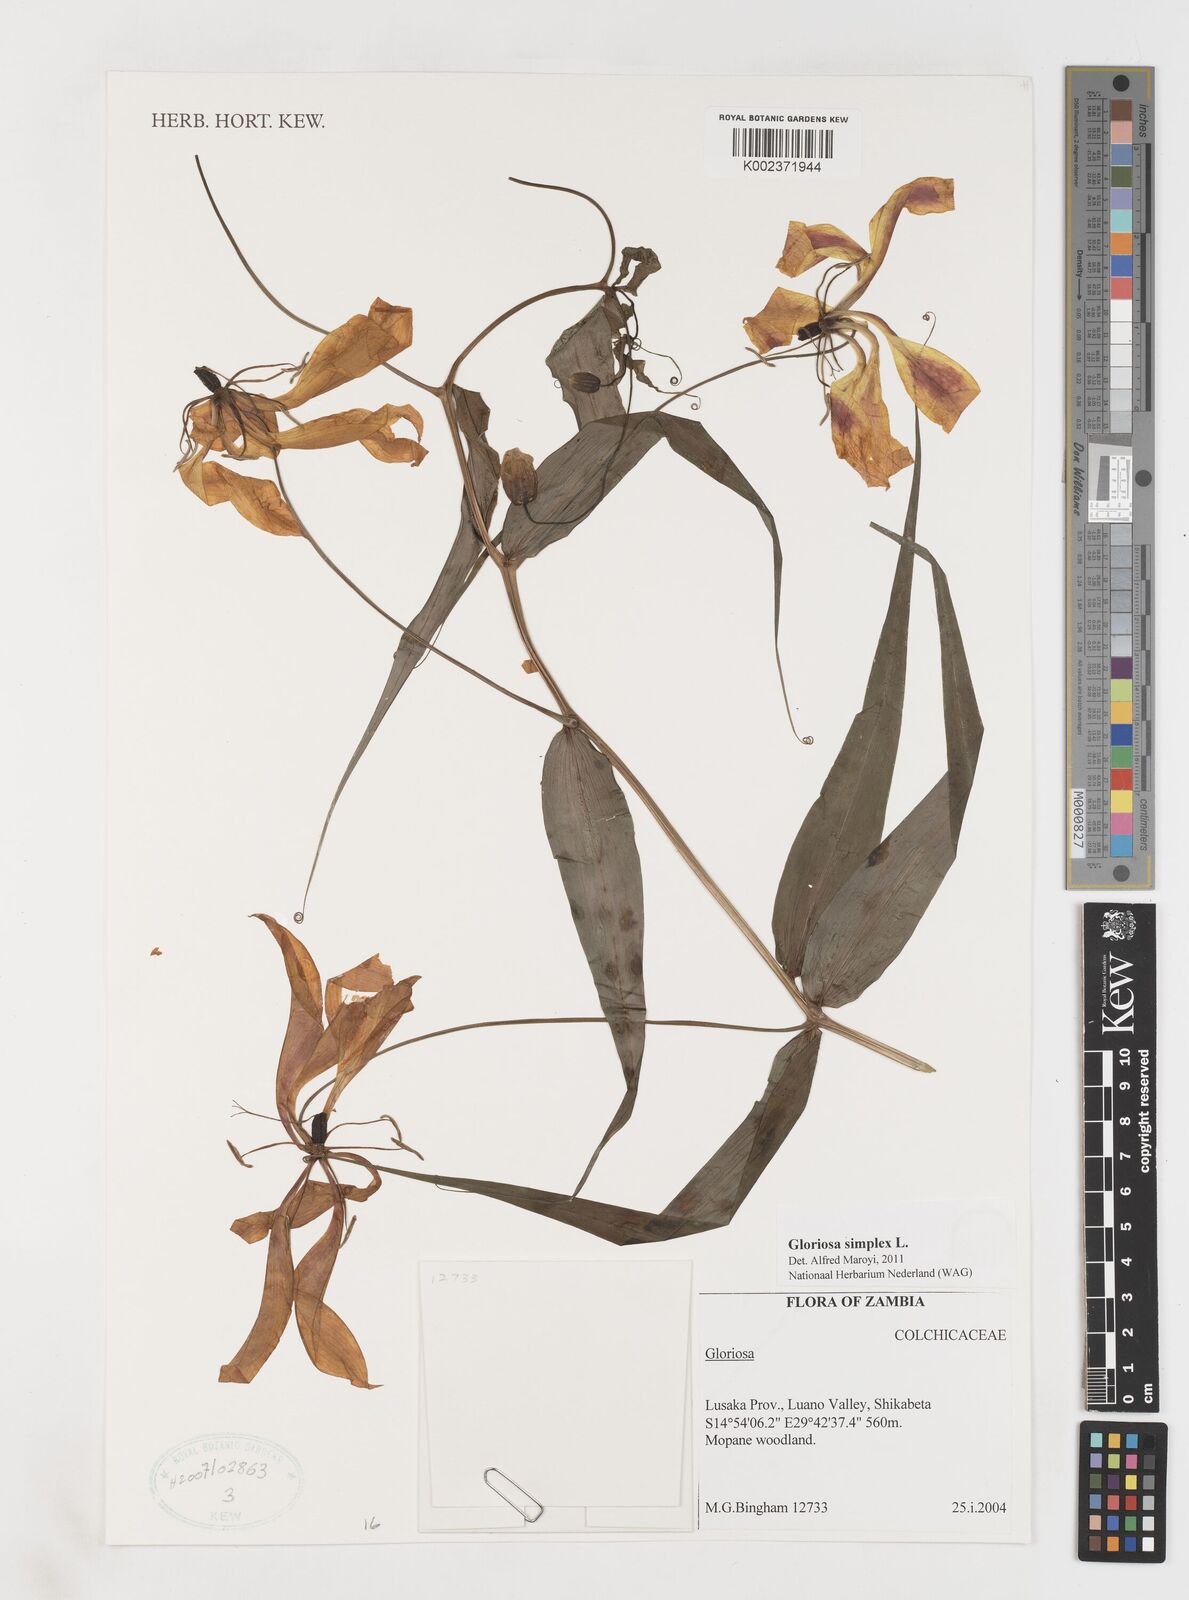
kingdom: Plantae
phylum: Tracheophyta
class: Liliopsida
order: Liliales
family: Colchicaceae
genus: Gloriosa
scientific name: Gloriosa simplex
